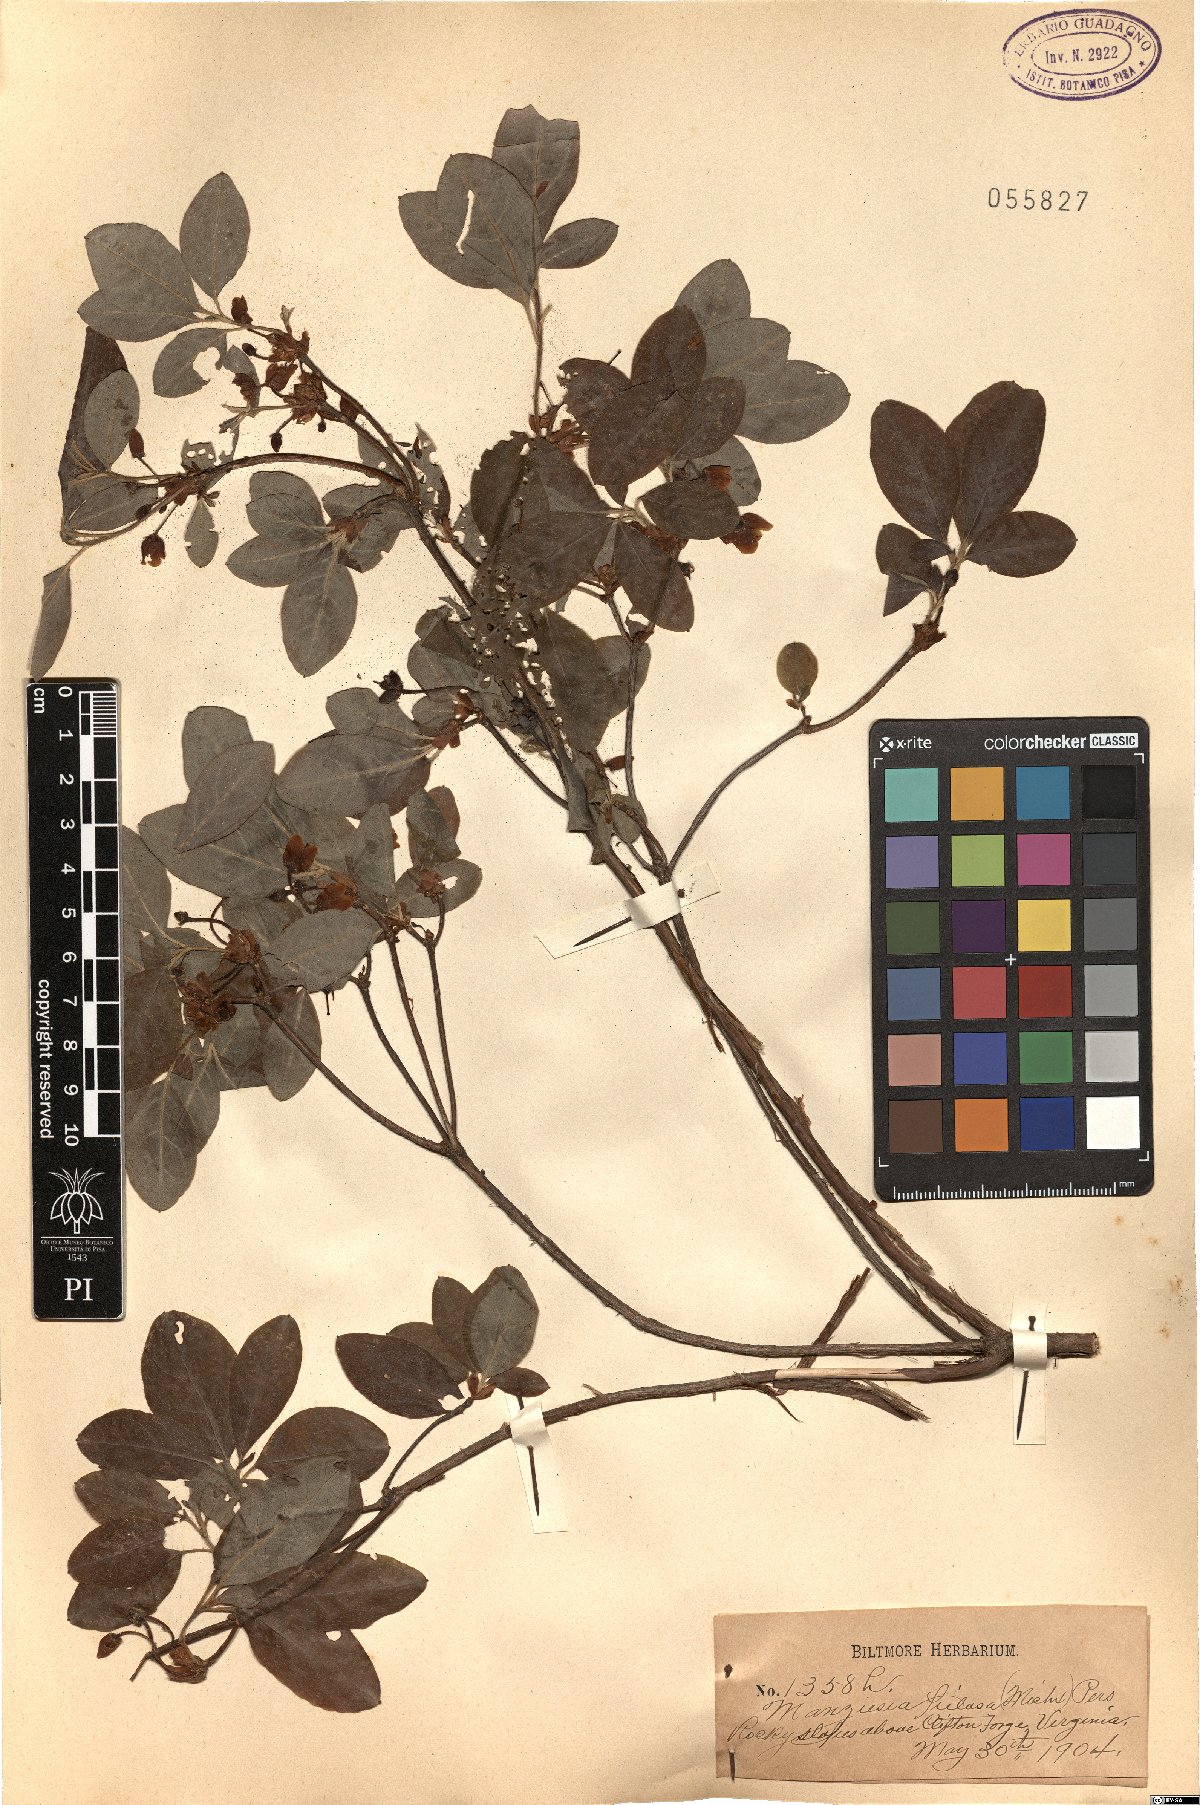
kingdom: Plantae
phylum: Tracheophyta
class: Magnoliopsida
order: Ericales
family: Ericaceae
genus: Rhododendron
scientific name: Rhododendron pilosum
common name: Hairy minniebush
